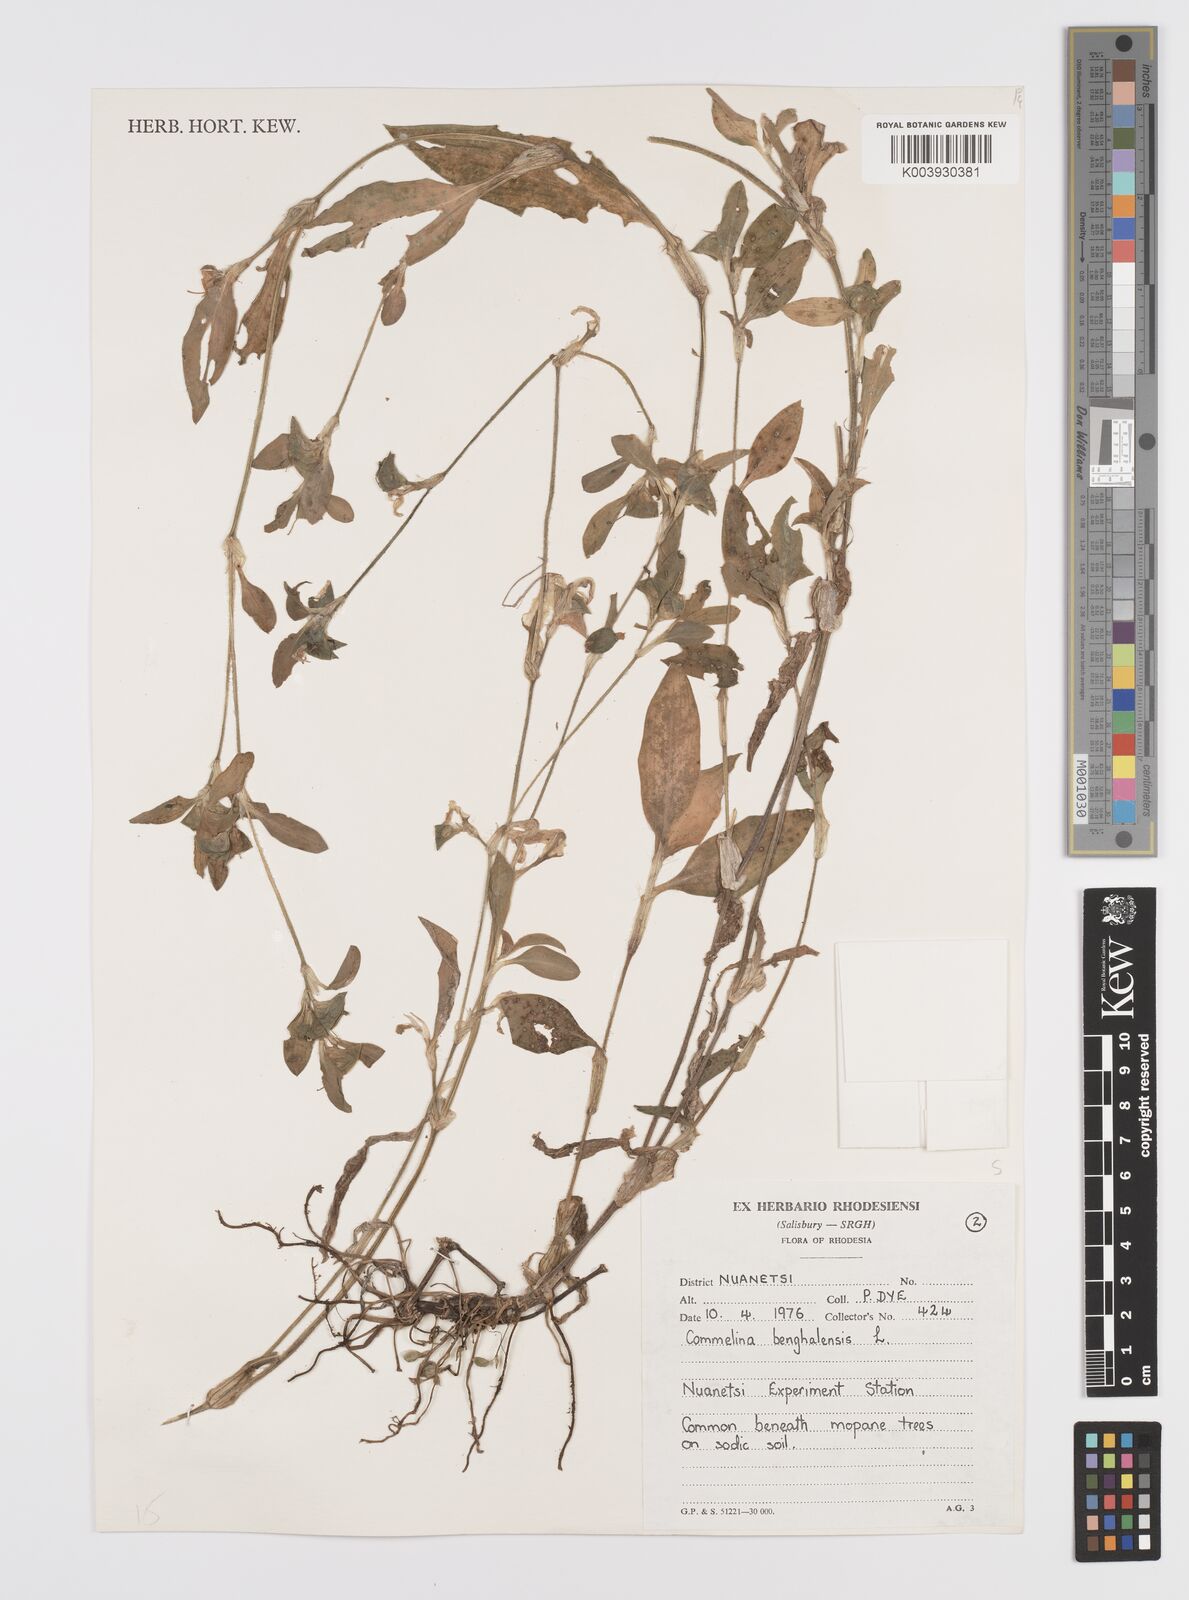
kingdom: Plantae
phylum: Tracheophyta
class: Liliopsida
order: Commelinales
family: Commelinaceae
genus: Commelina
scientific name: Commelina benghalensis
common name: Jio
